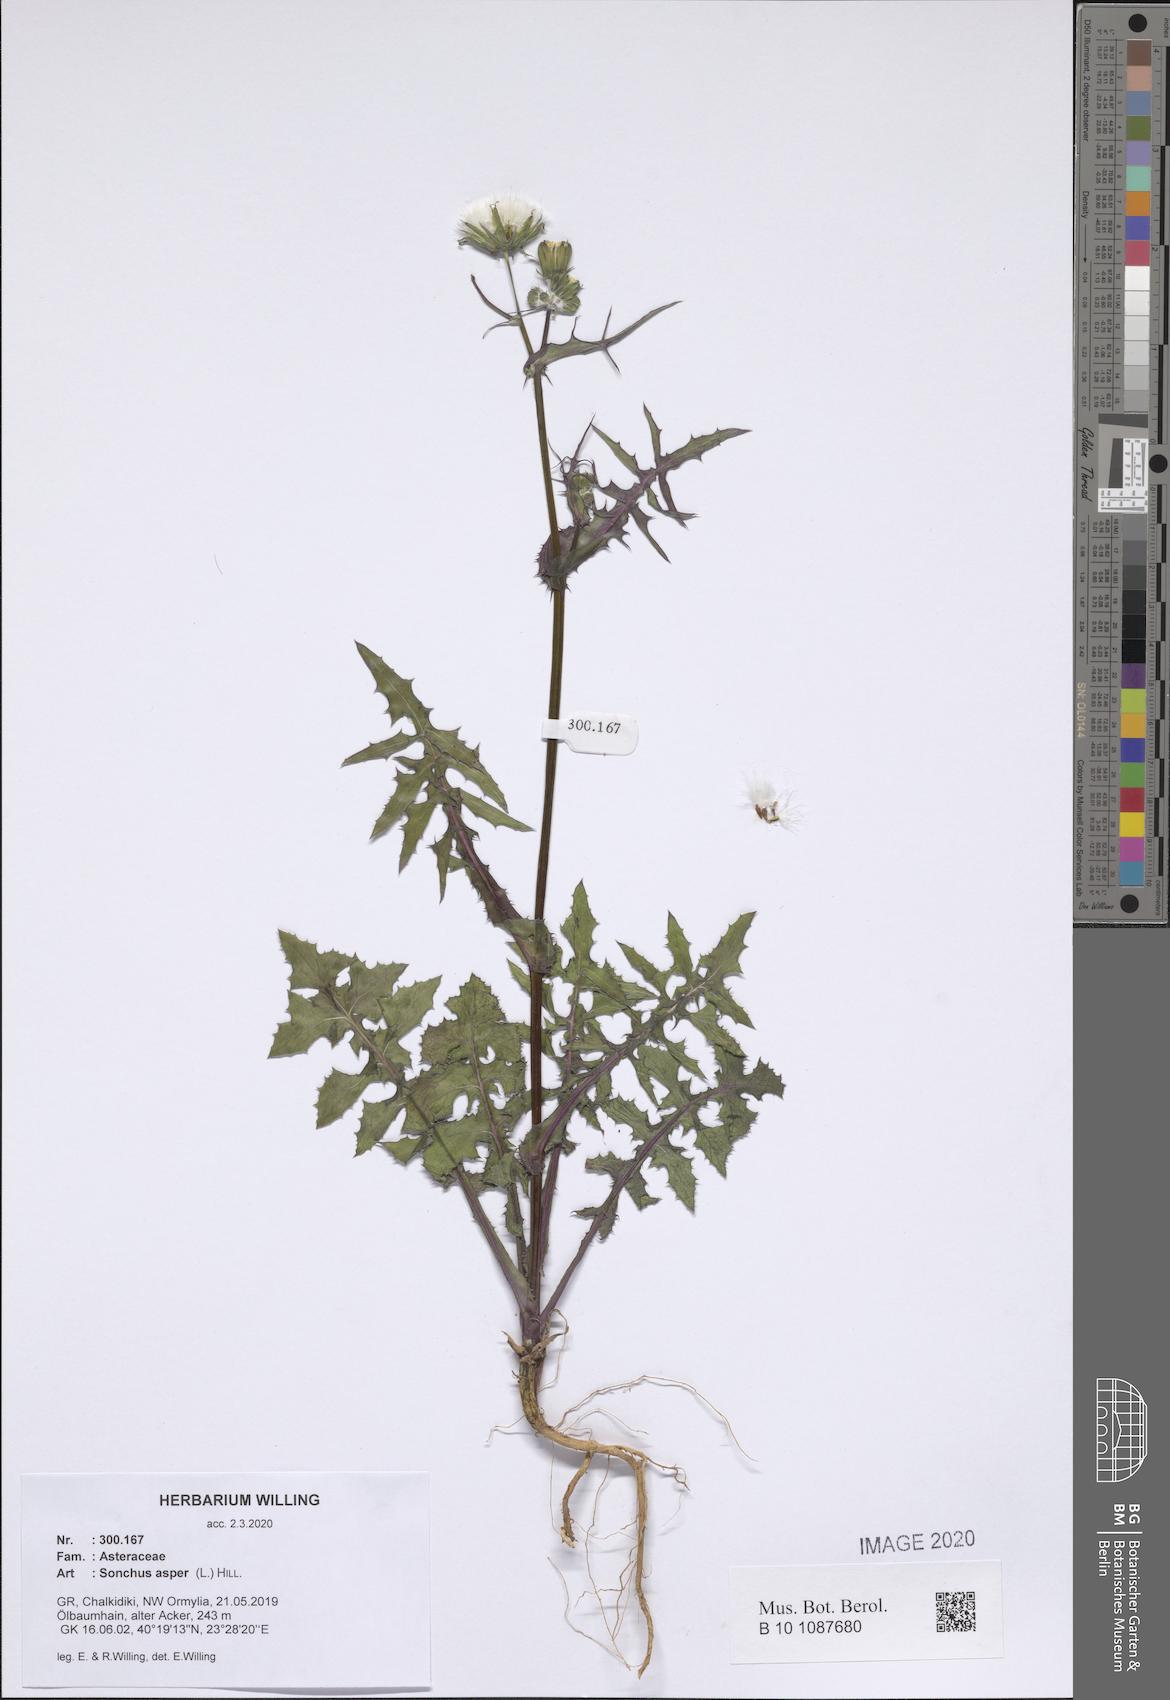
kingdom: Plantae
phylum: Tracheophyta
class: Magnoliopsida
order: Asterales
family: Asteraceae
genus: Sonchus
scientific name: Sonchus asper
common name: Prickly sow-thistle
